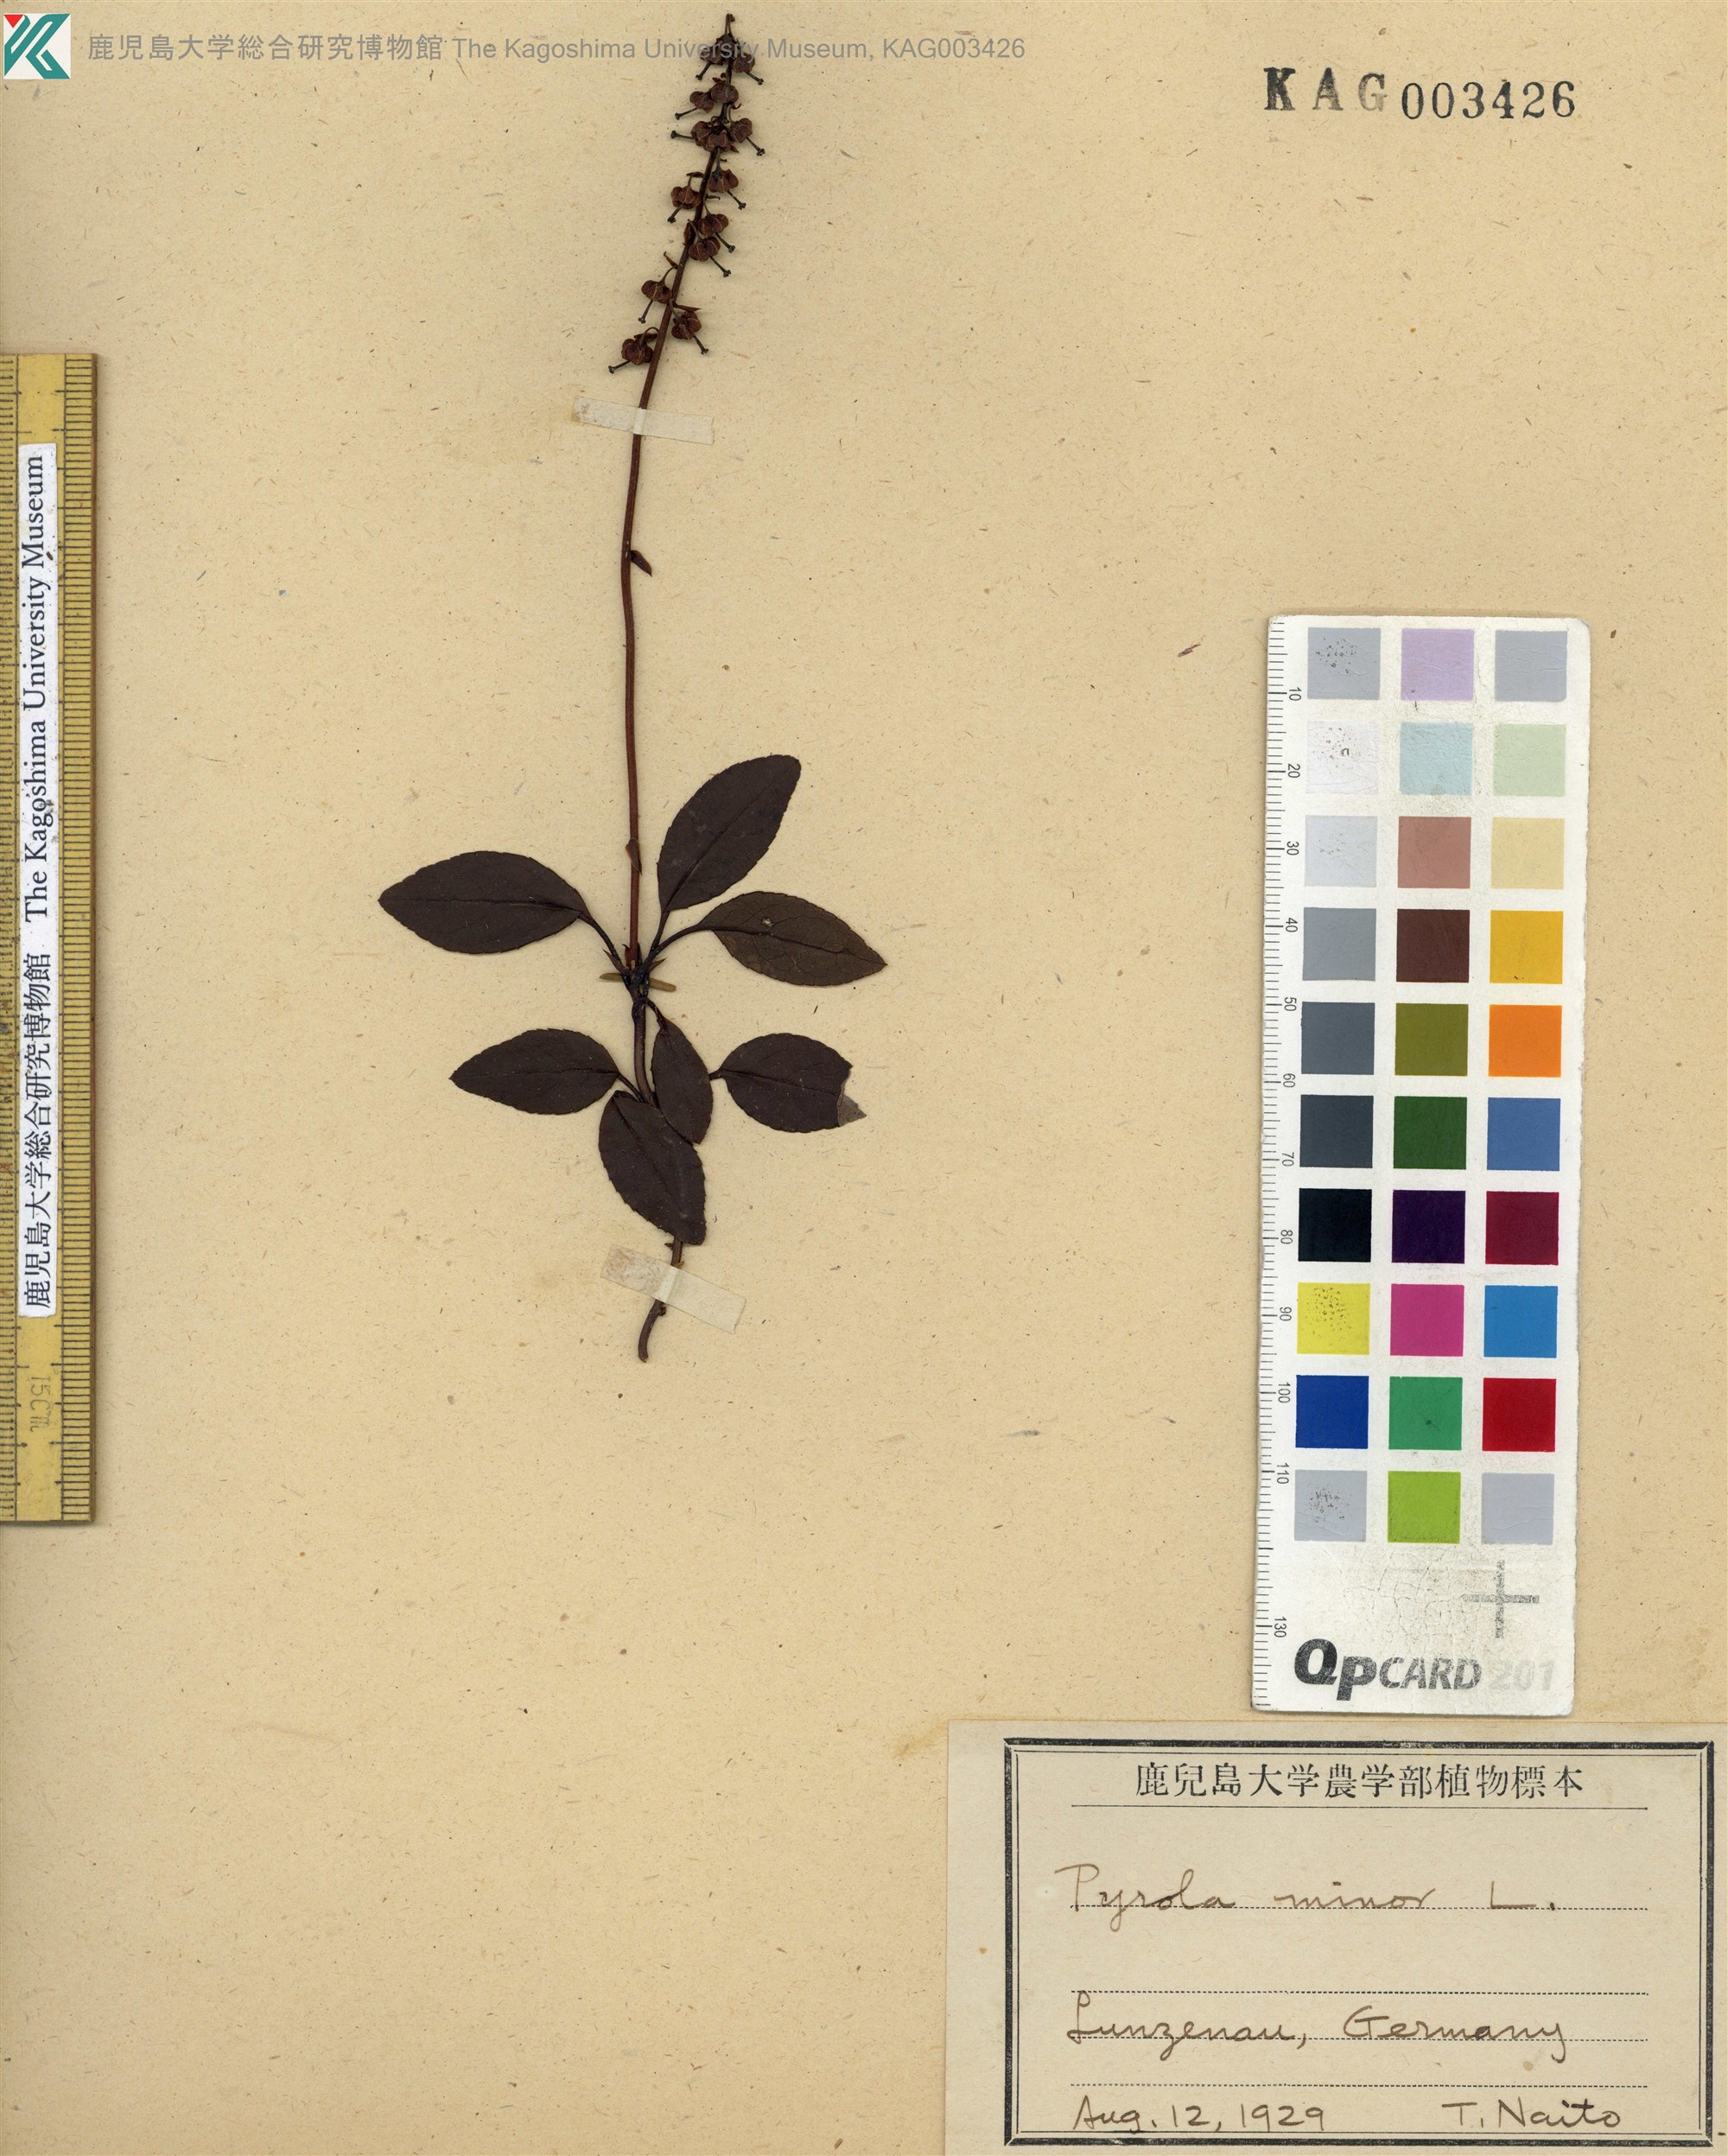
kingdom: Plantae
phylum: Tracheophyta
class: Magnoliopsida
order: Ericales
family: Ericaceae
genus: Pyrola
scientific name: Pyrola minor
